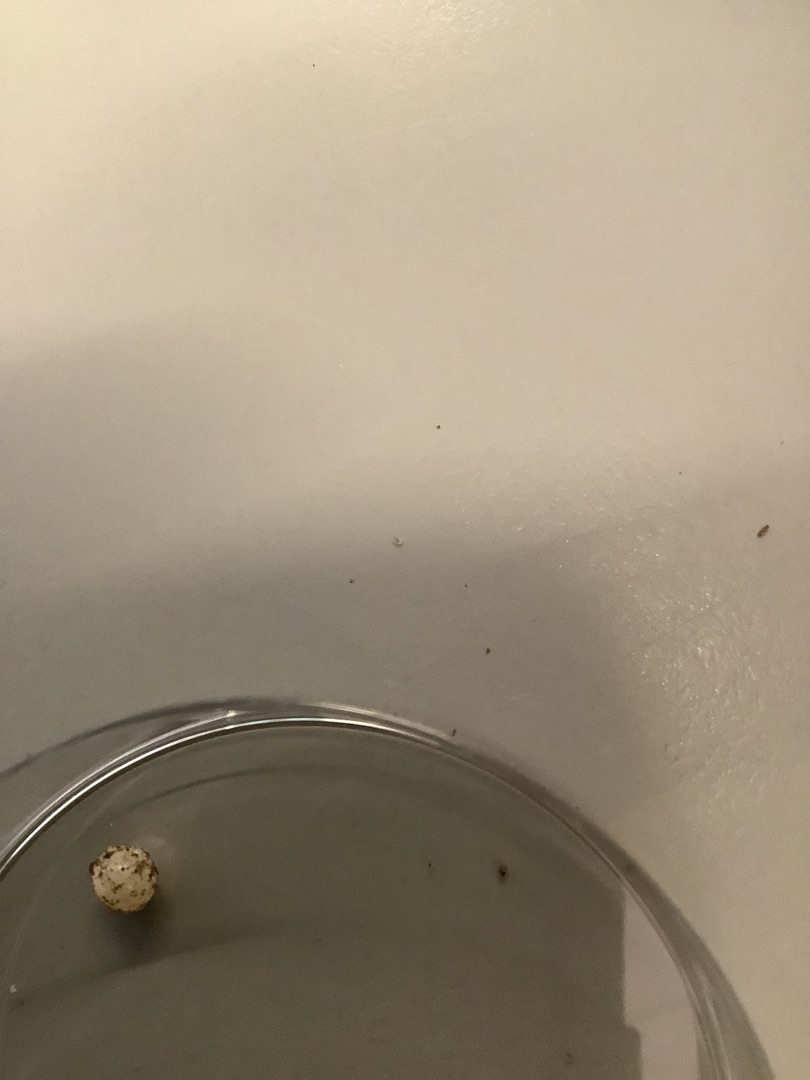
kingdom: Animalia
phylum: Mollusca
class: Gastropoda
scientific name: Gastropoda
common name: Snegle
